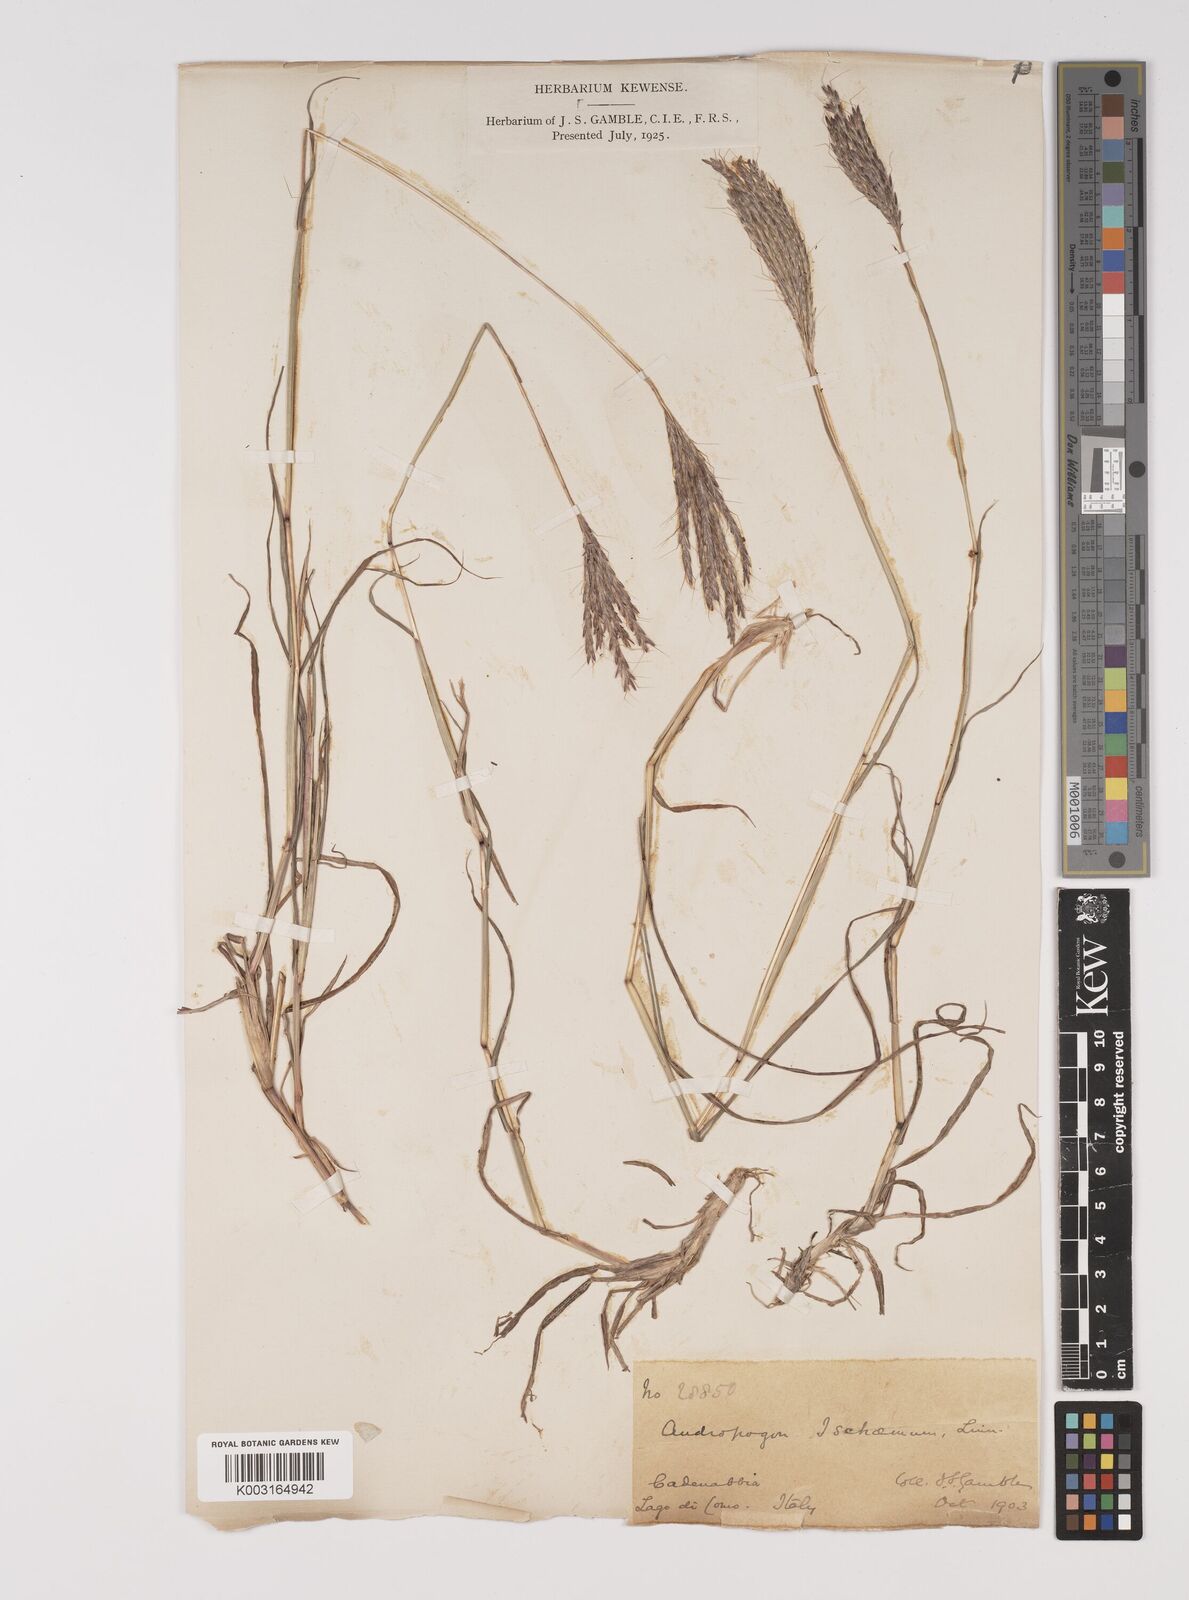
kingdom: Plantae
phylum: Tracheophyta
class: Liliopsida
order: Poales
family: Poaceae
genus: Bothriochloa
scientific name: Bothriochloa ischaemum
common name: Yellow bluestem
